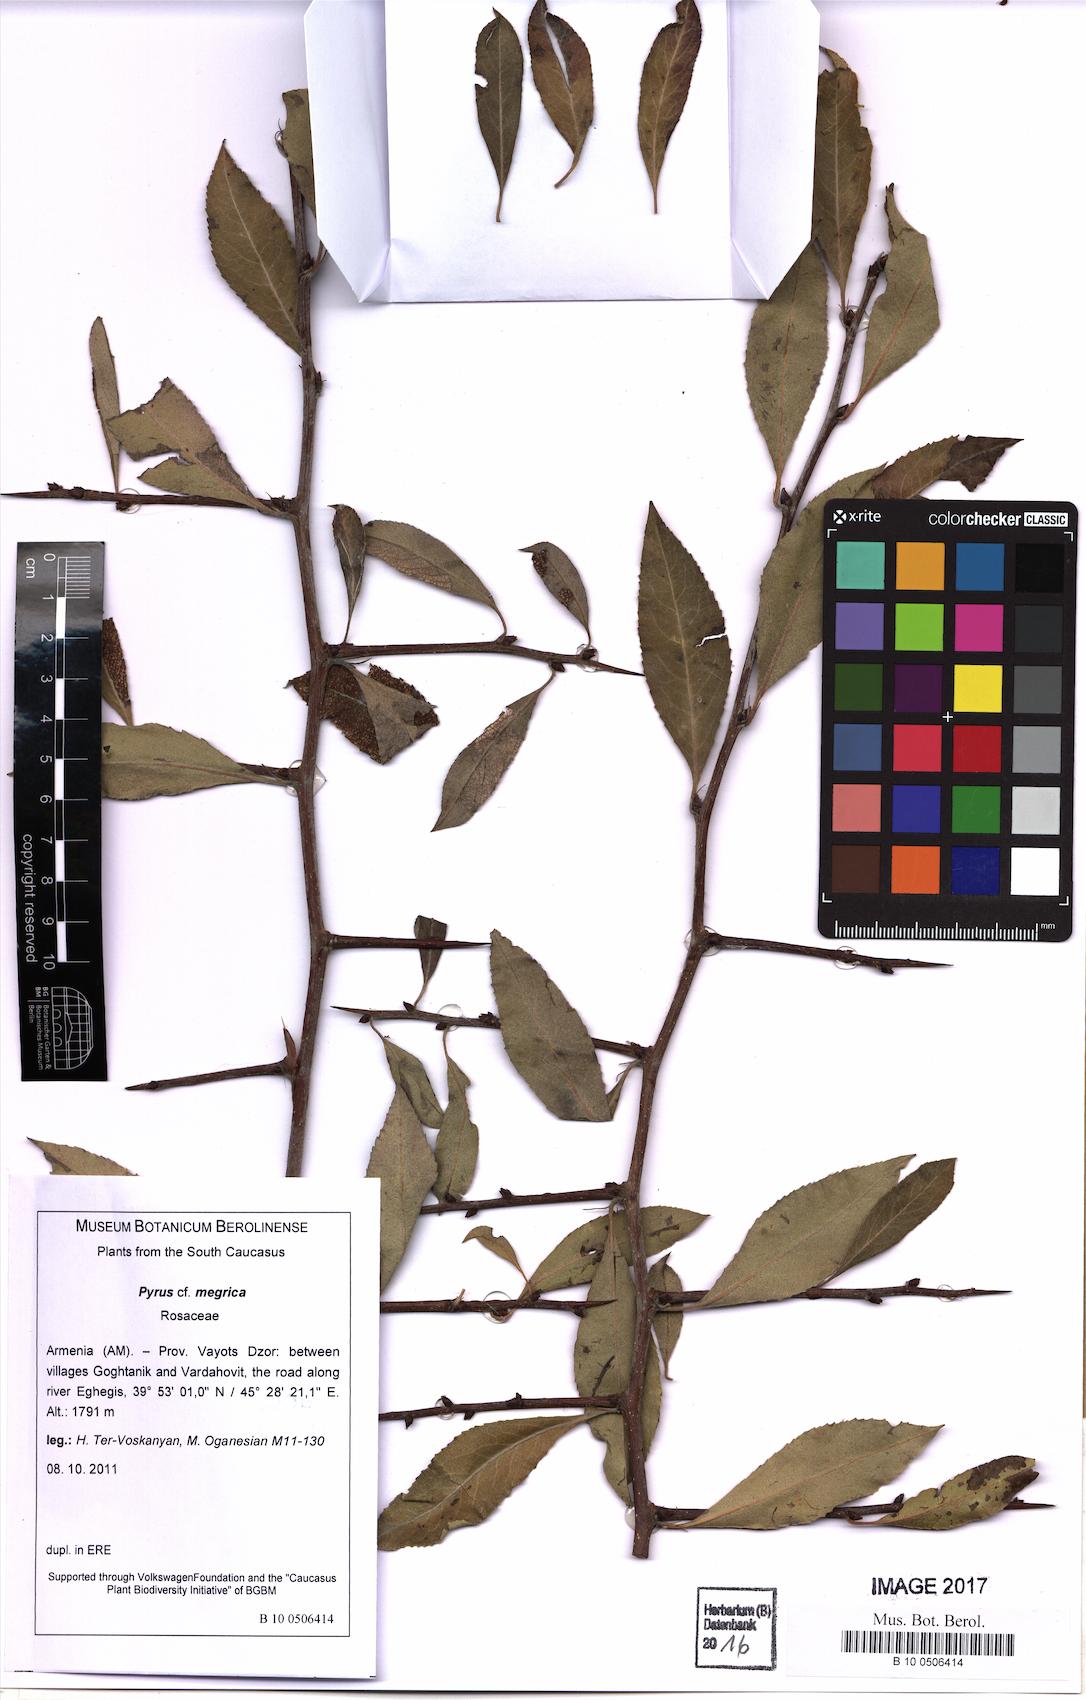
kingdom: Plantae
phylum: Tracheophyta
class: Magnoliopsida
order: Rosales
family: Rosaceae
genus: Pyrus
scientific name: Pyrus megrica
